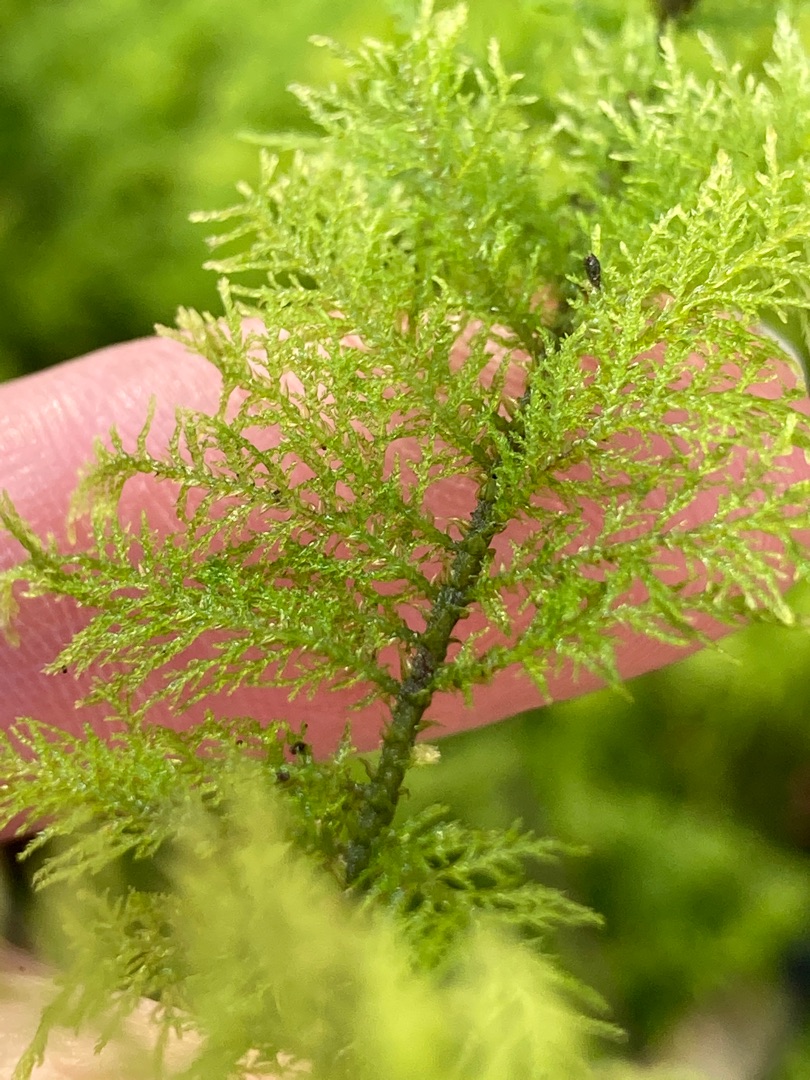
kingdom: Plantae
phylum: Bryophyta
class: Bryopsida
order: Hypnales
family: Thuidiaceae
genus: Thuidium
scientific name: Thuidium tamariscinum
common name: Pryd-bregnemos
